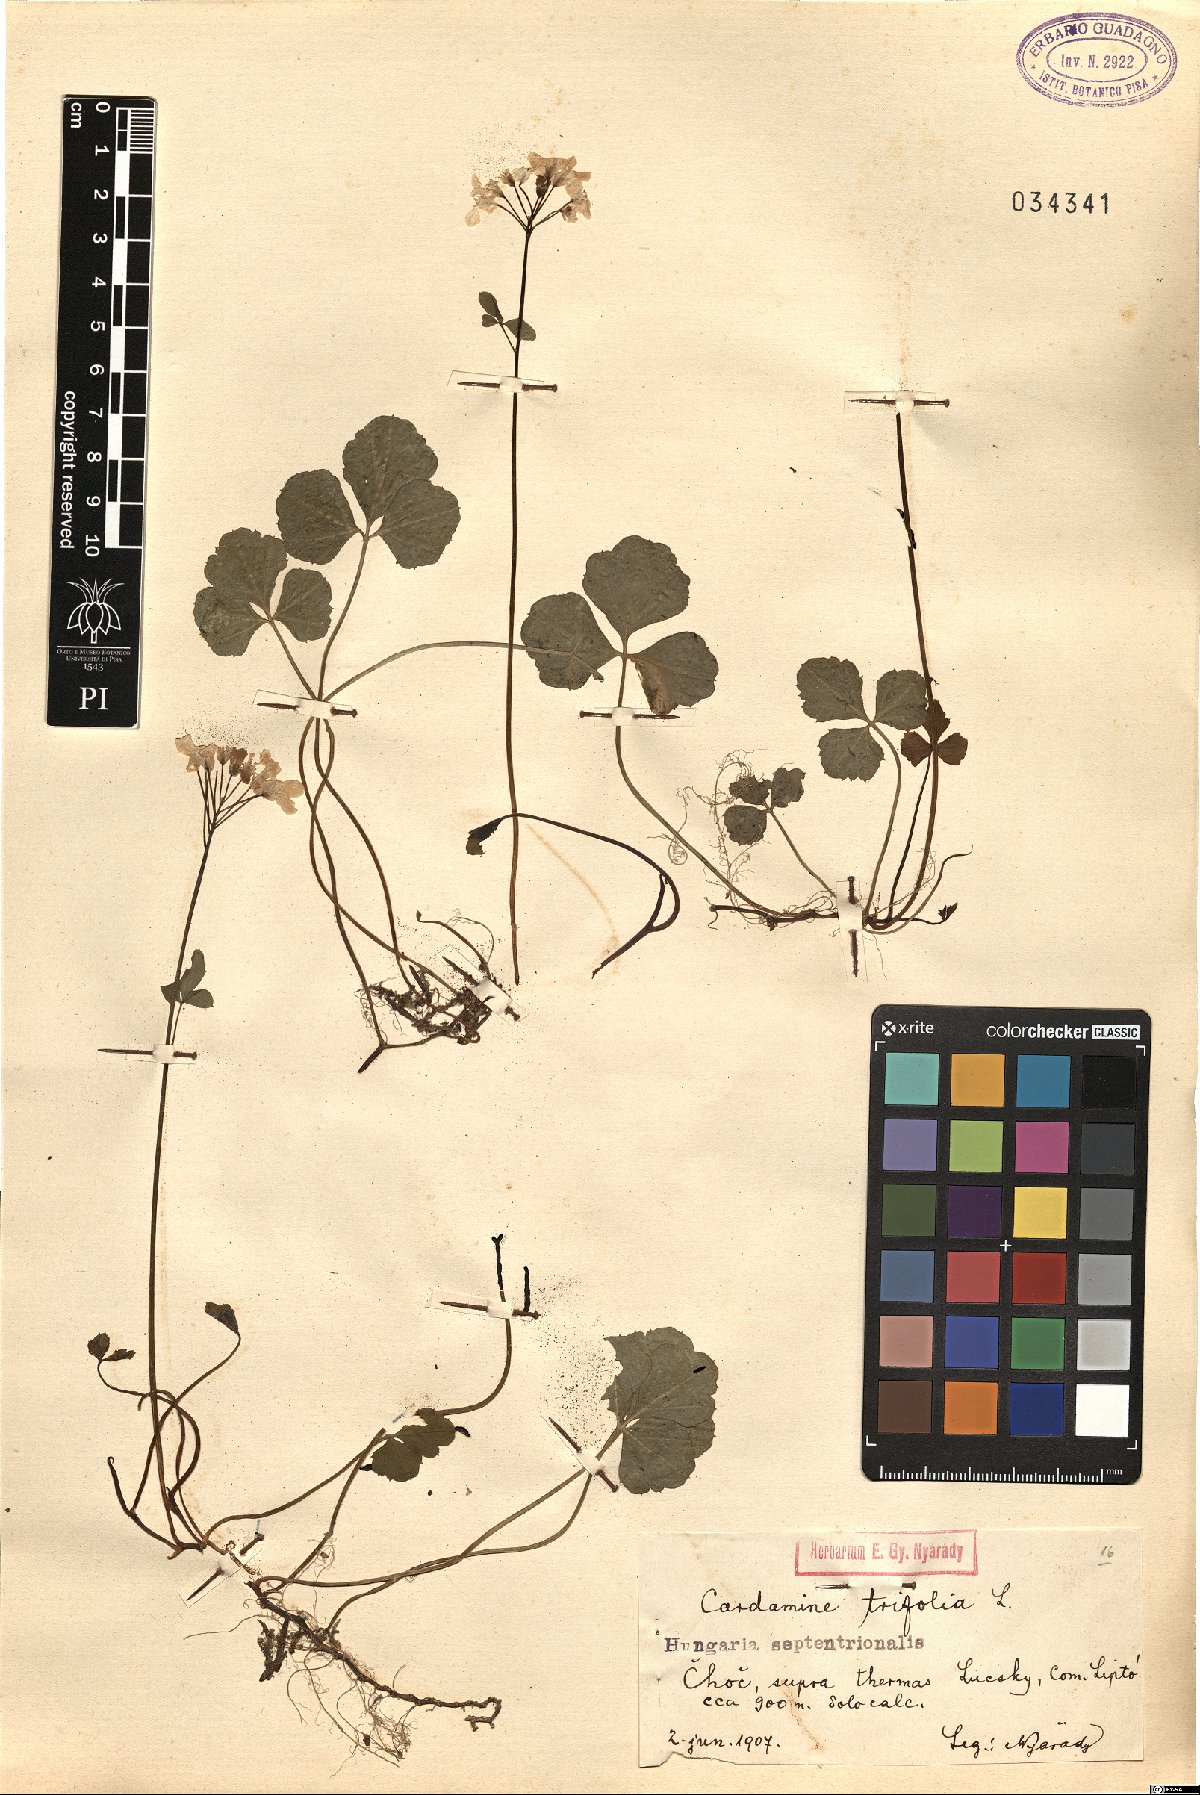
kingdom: Plantae
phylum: Tracheophyta
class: Magnoliopsida
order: Brassicales
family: Brassicaceae
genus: Cardamine
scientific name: Cardamine trifolia
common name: Trefoil cress
